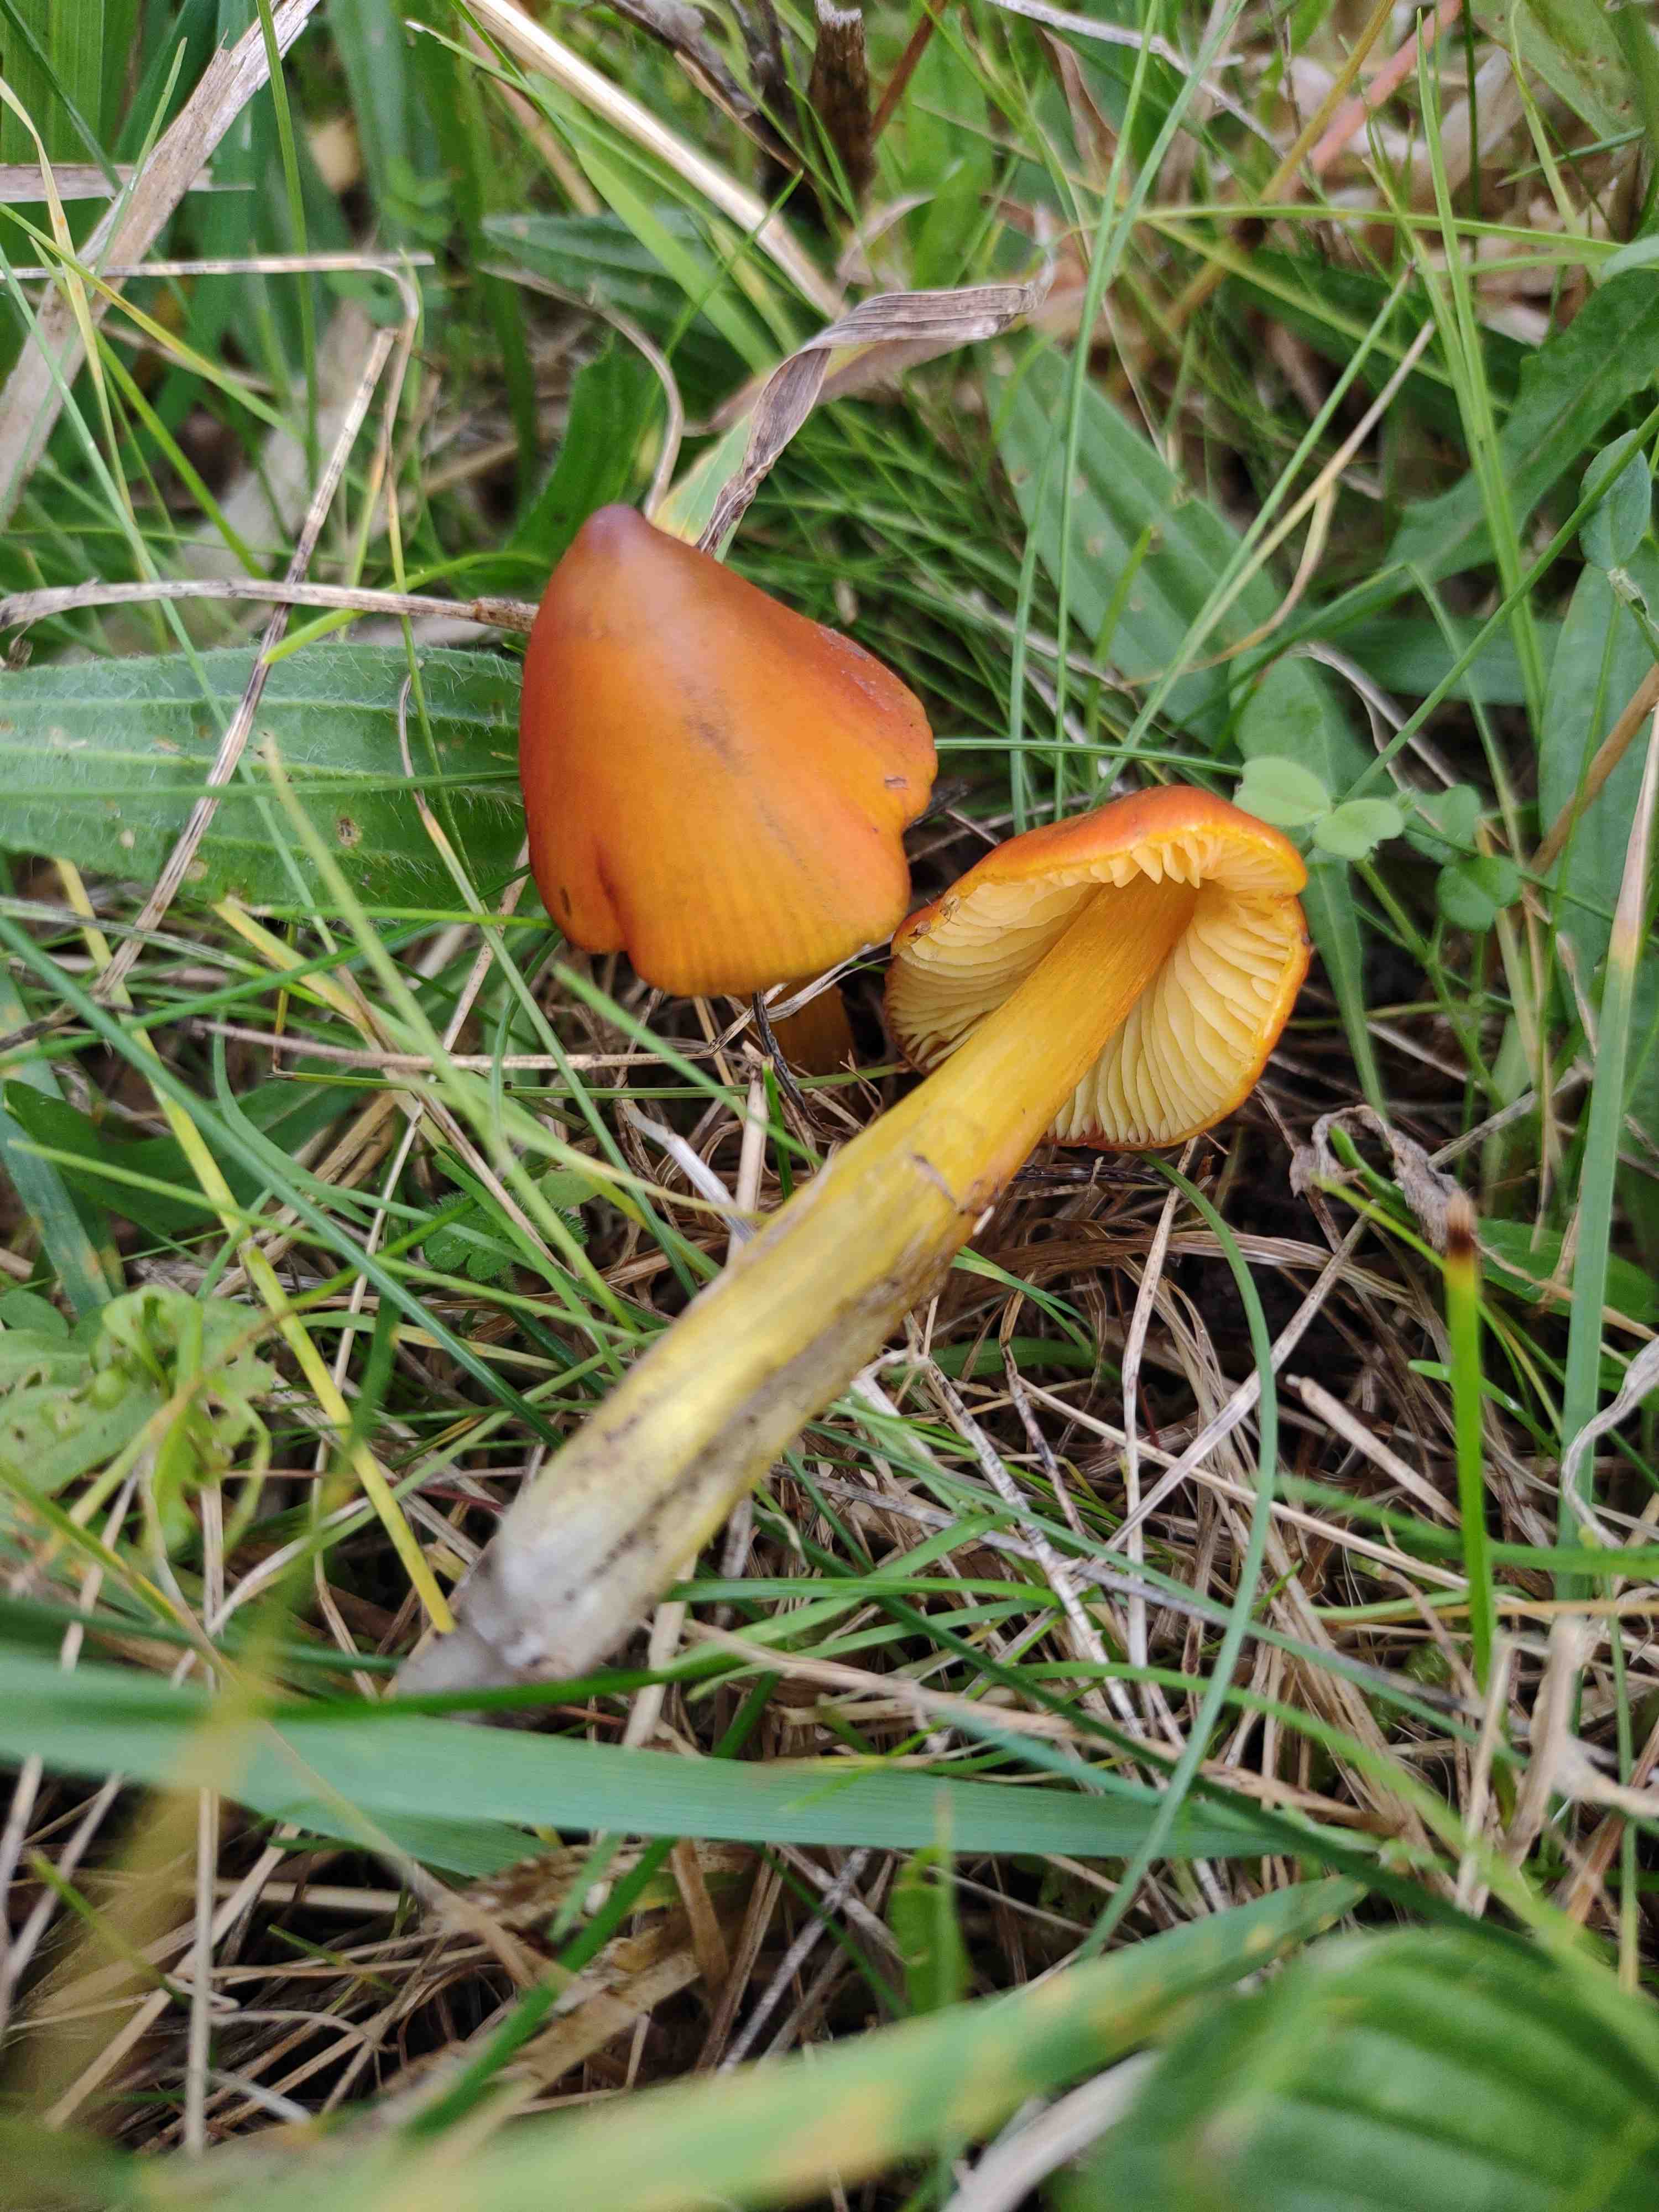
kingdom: Fungi
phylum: Basidiomycota
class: Agaricomycetes
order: Agaricales
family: Hygrophoraceae
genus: Hygrocybe
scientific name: Hygrocybe conica
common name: kegle-vokshat
